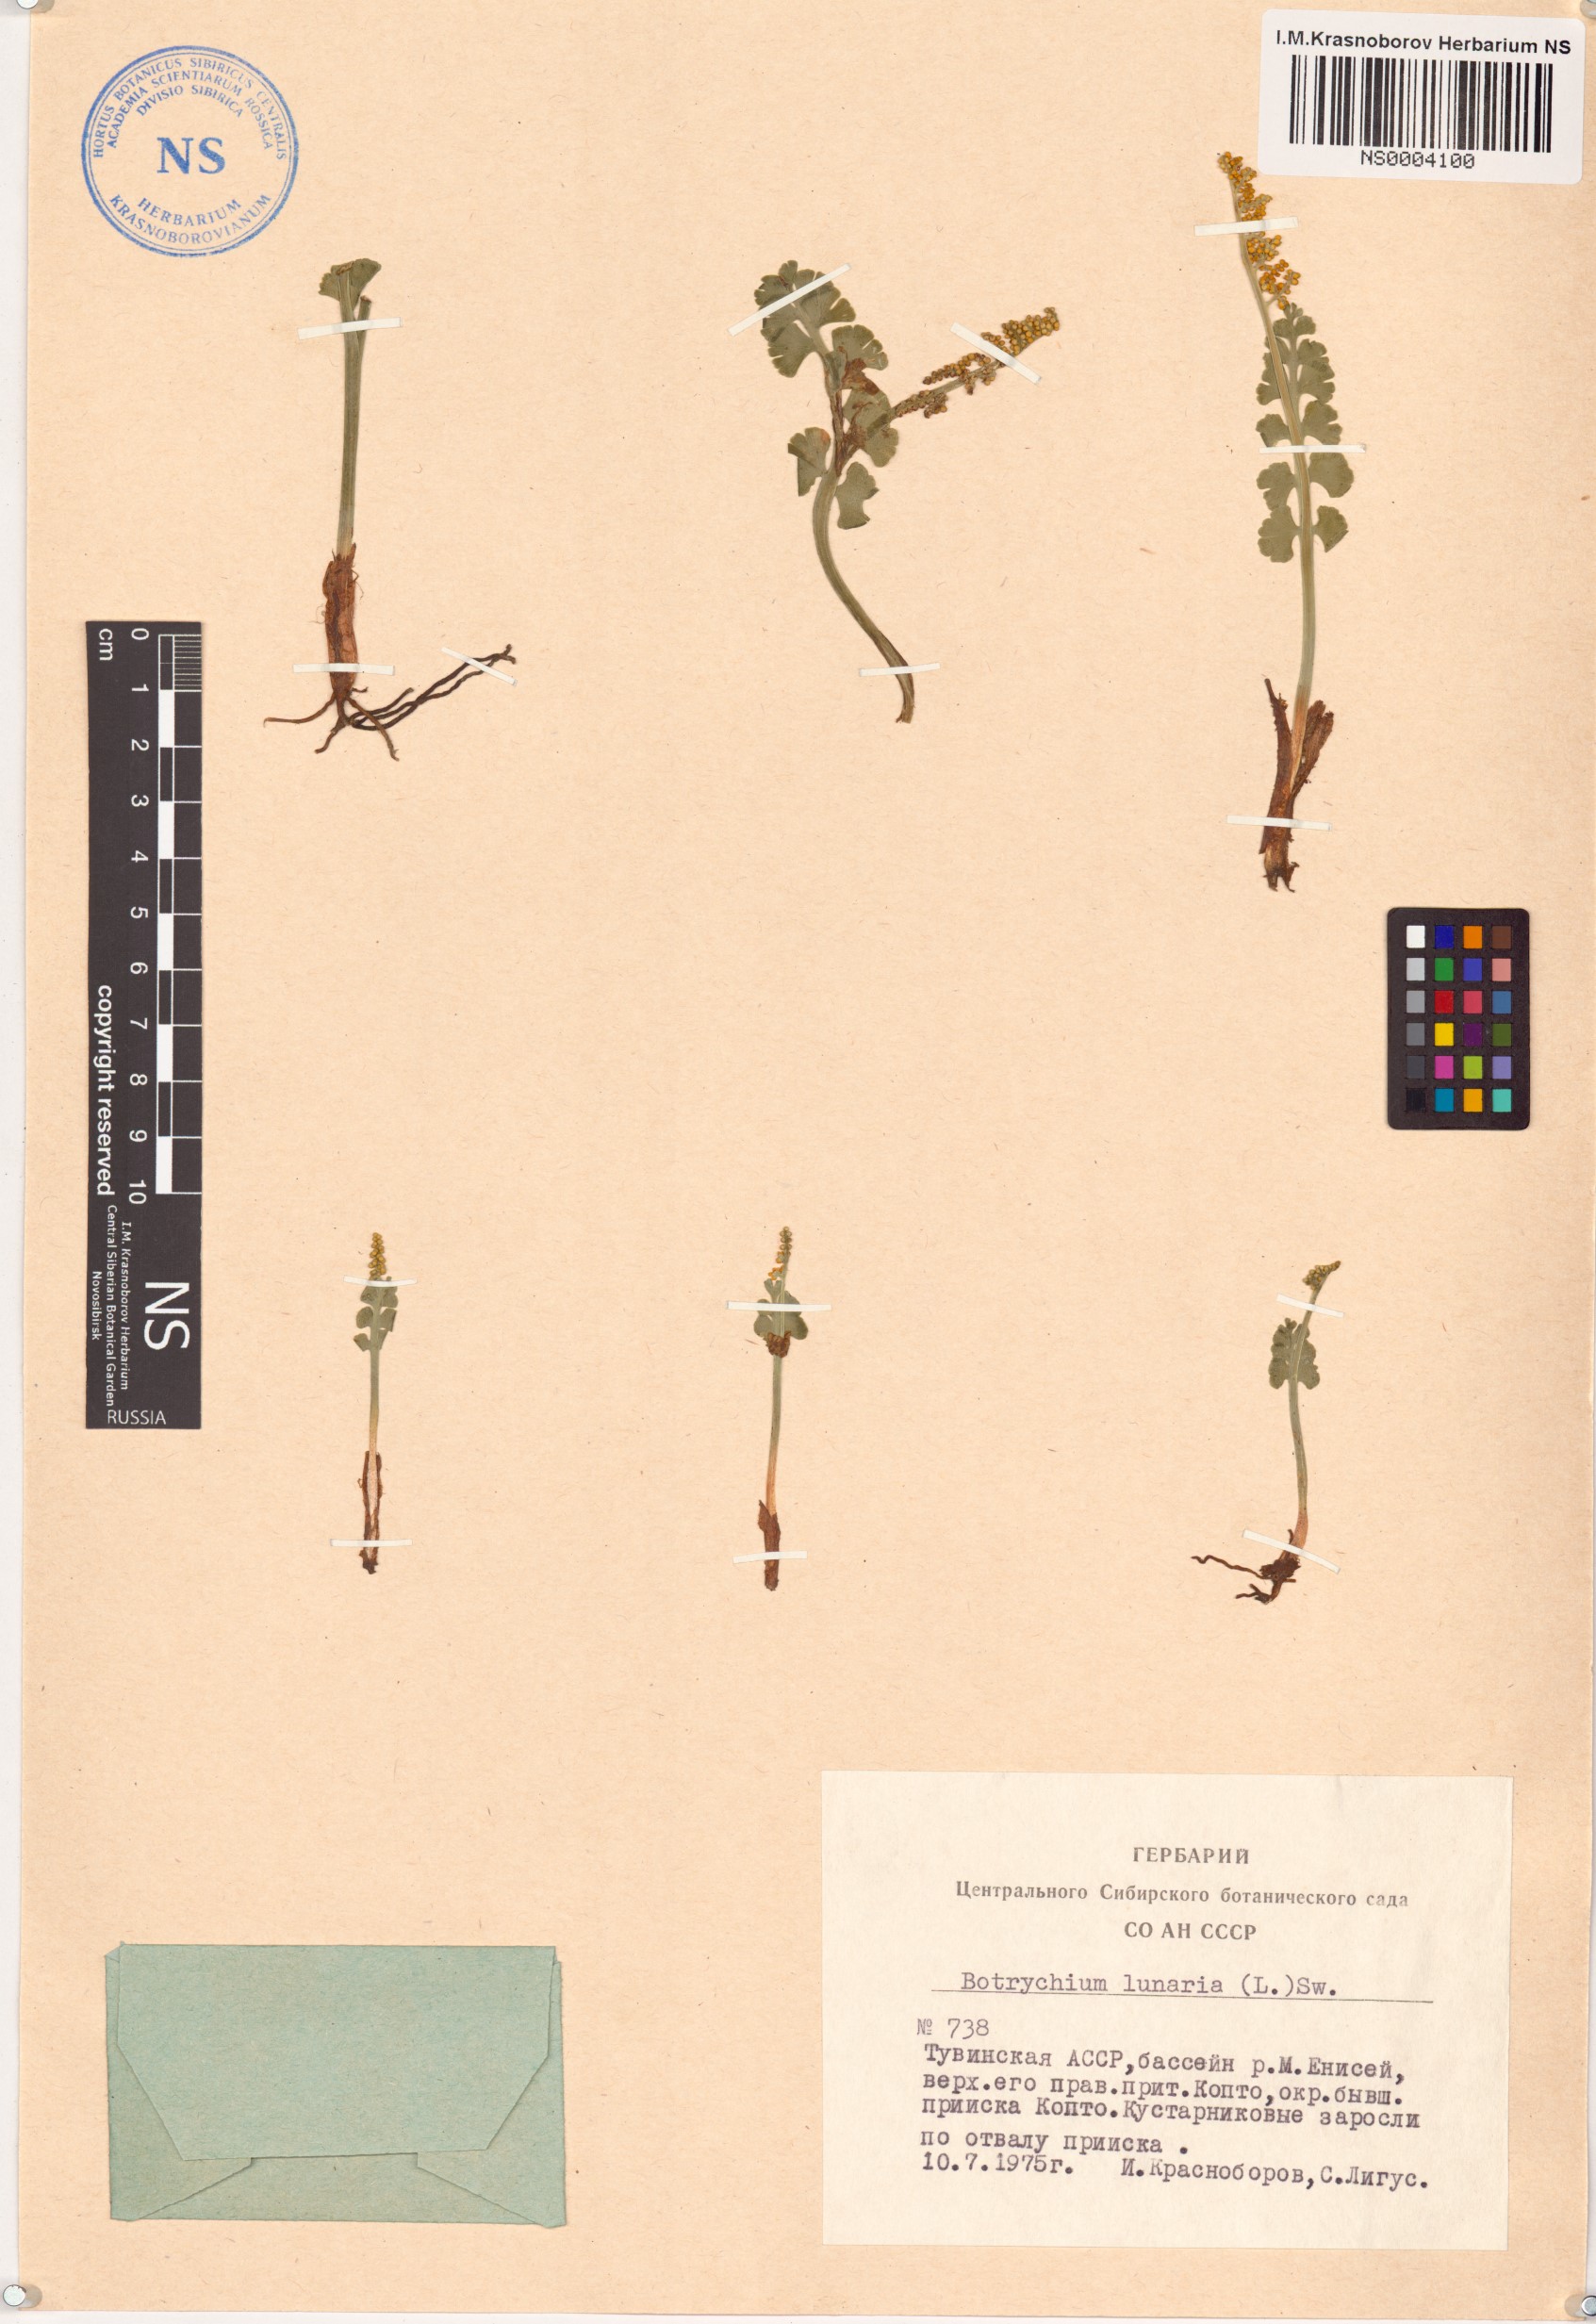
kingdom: Plantae
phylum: Tracheophyta
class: Polypodiopsida
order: Ophioglossales
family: Ophioglossaceae
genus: Botrychium
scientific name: Botrychium lunaria
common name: Moonwort
